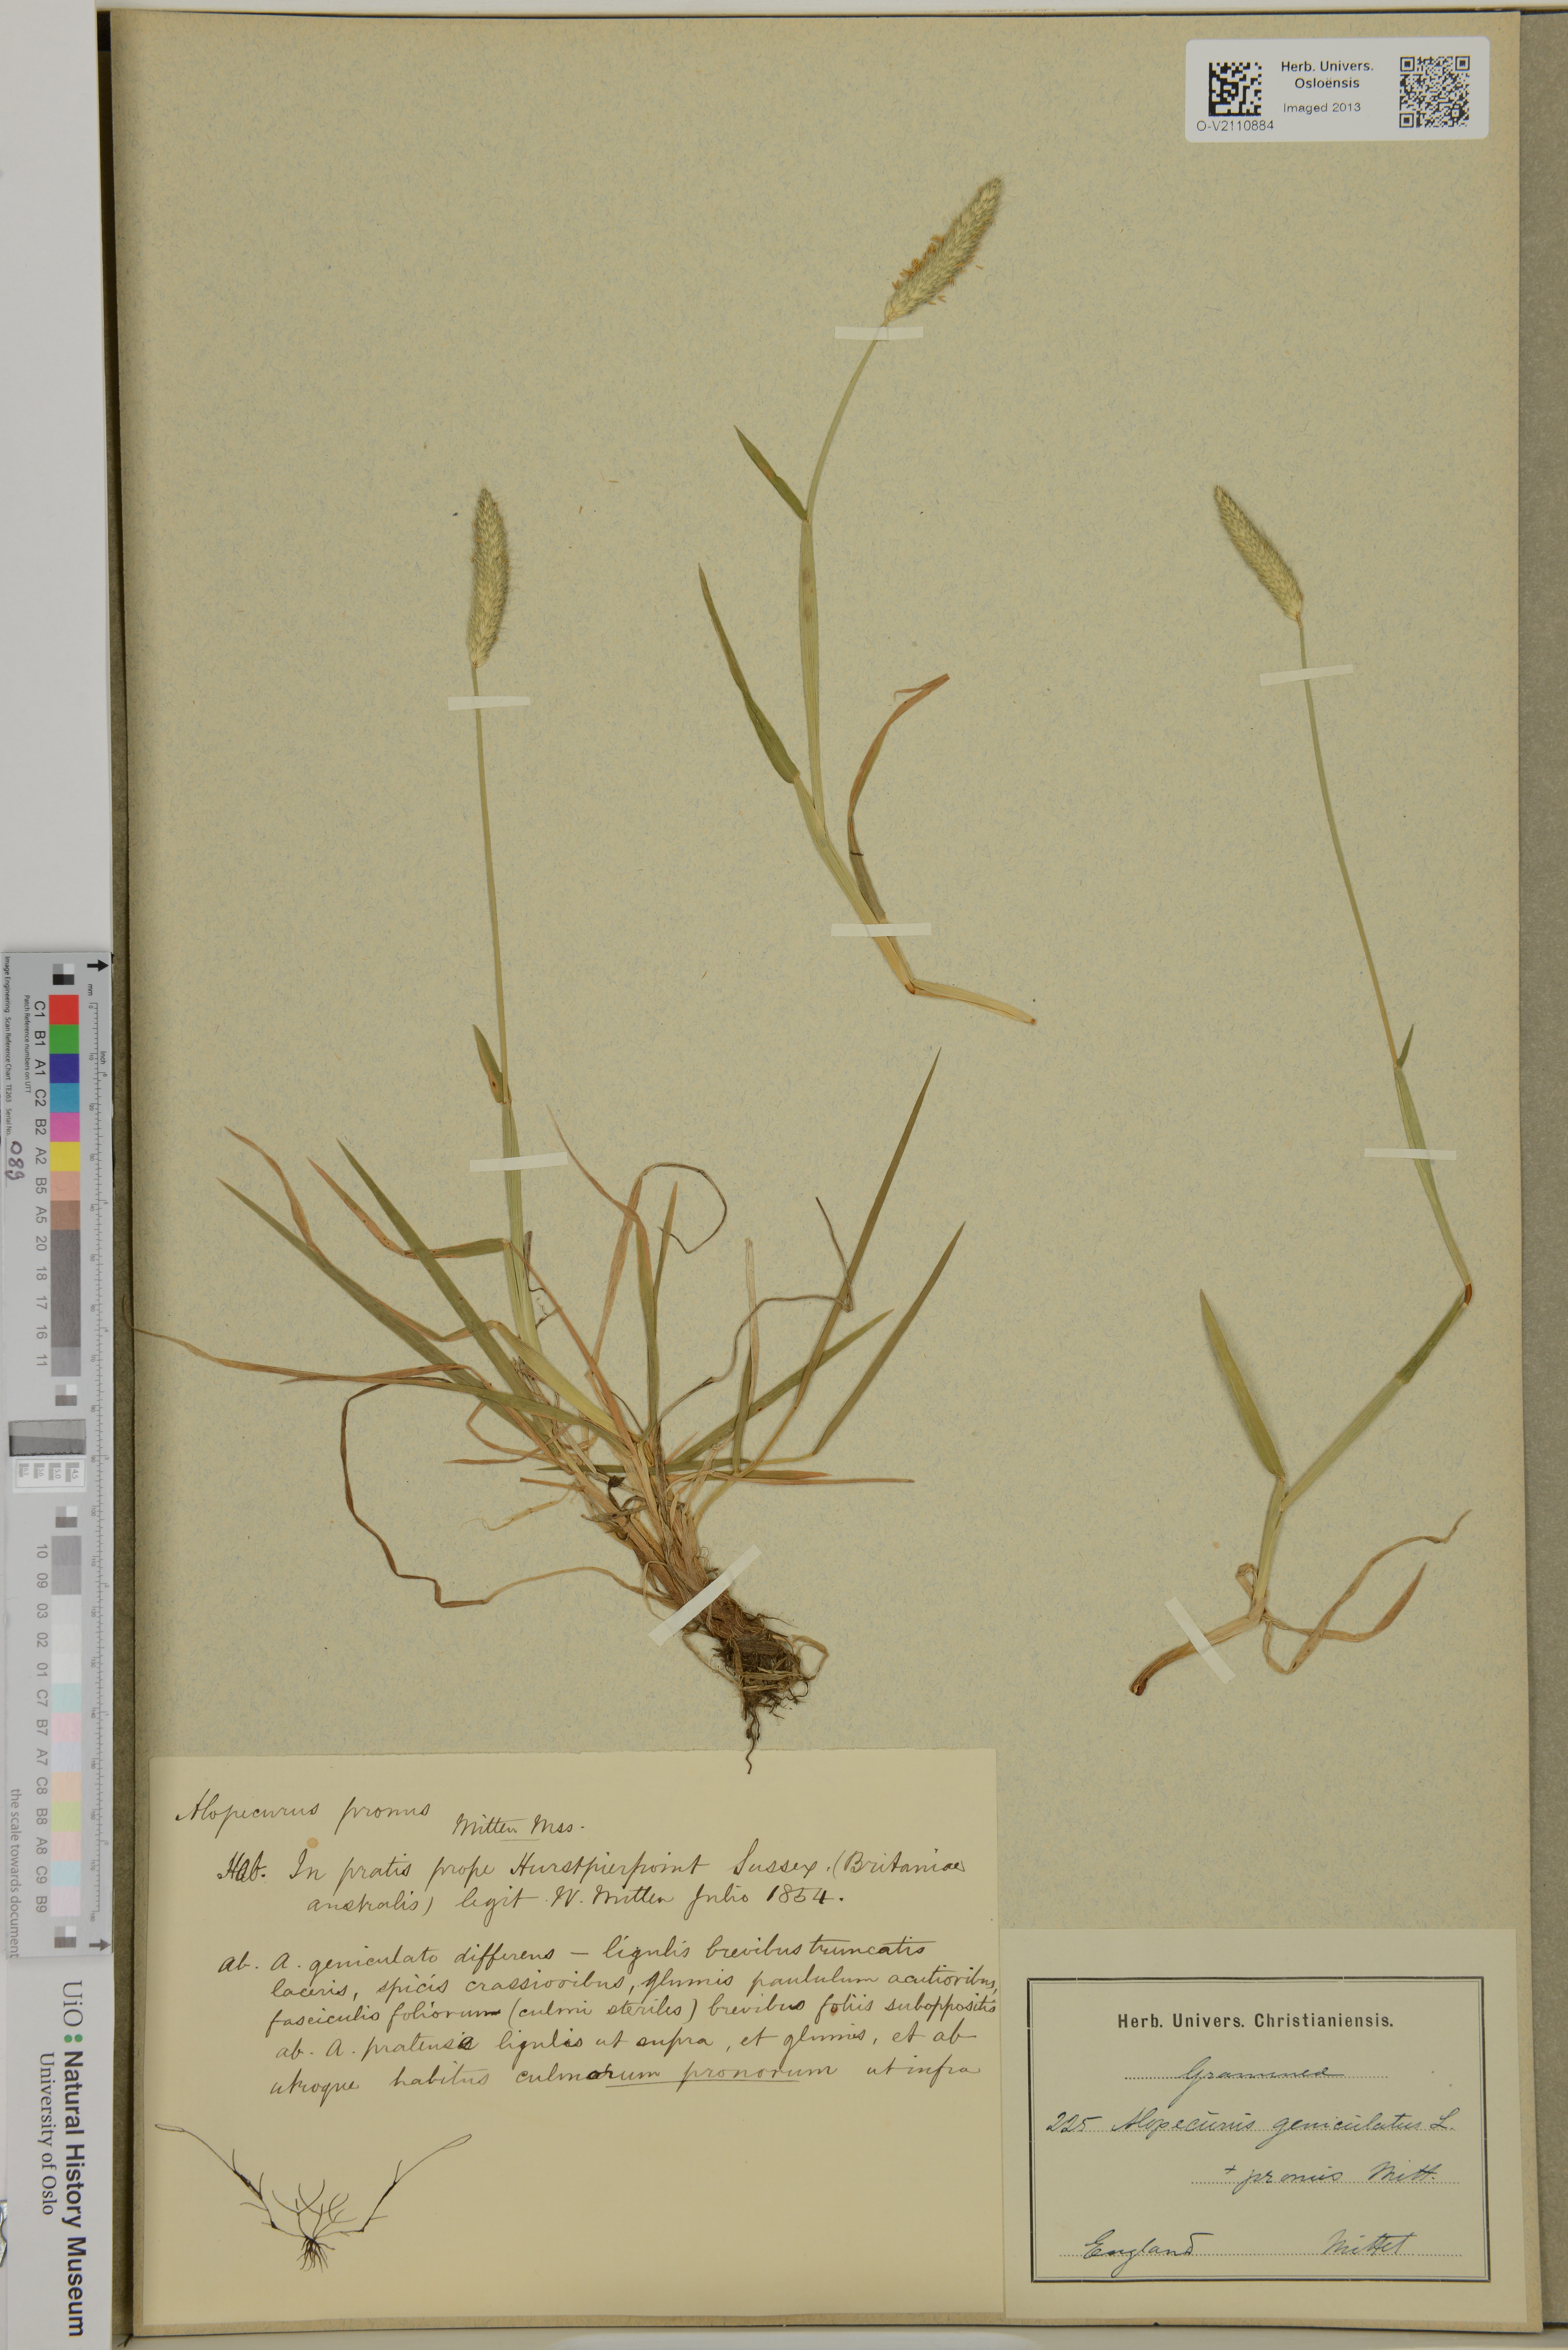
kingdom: Plantae
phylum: Tracheophyta
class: Liliopsida
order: Poales
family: Poaceae
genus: Alopecurus
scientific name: Alopecurus geniculatus
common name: Water foxtail
